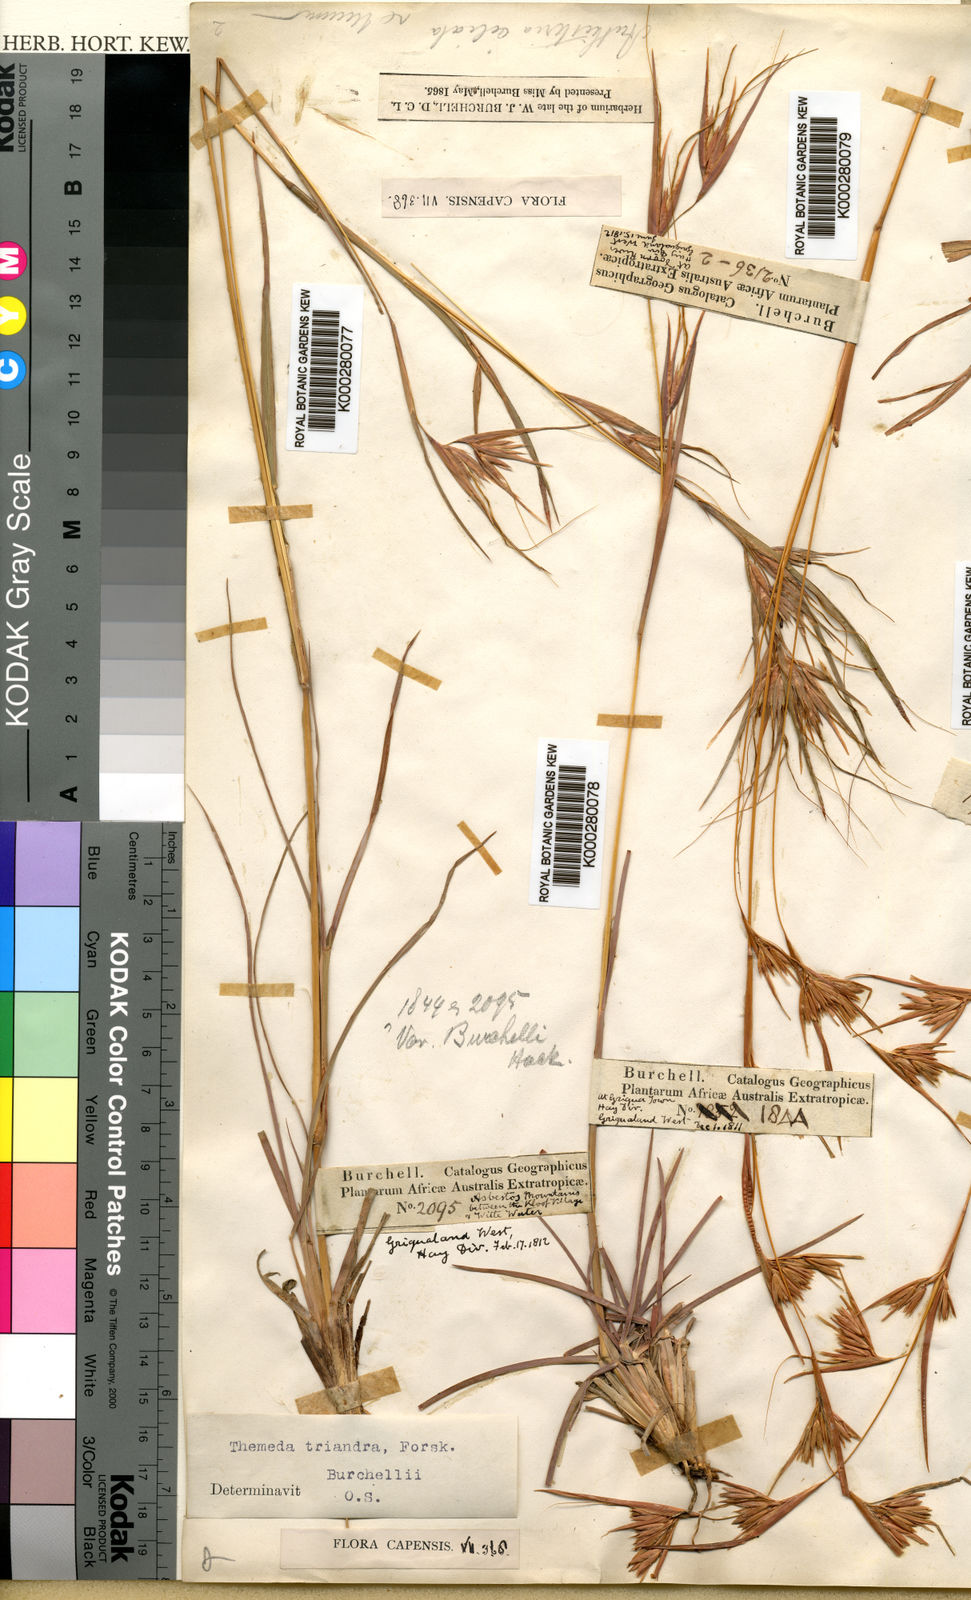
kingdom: Plantae
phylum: Tracheophyta
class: Liliopsida
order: Poales
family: Poaceae
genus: Themeda
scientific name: Themeda triandra
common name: Kangaroo grass
